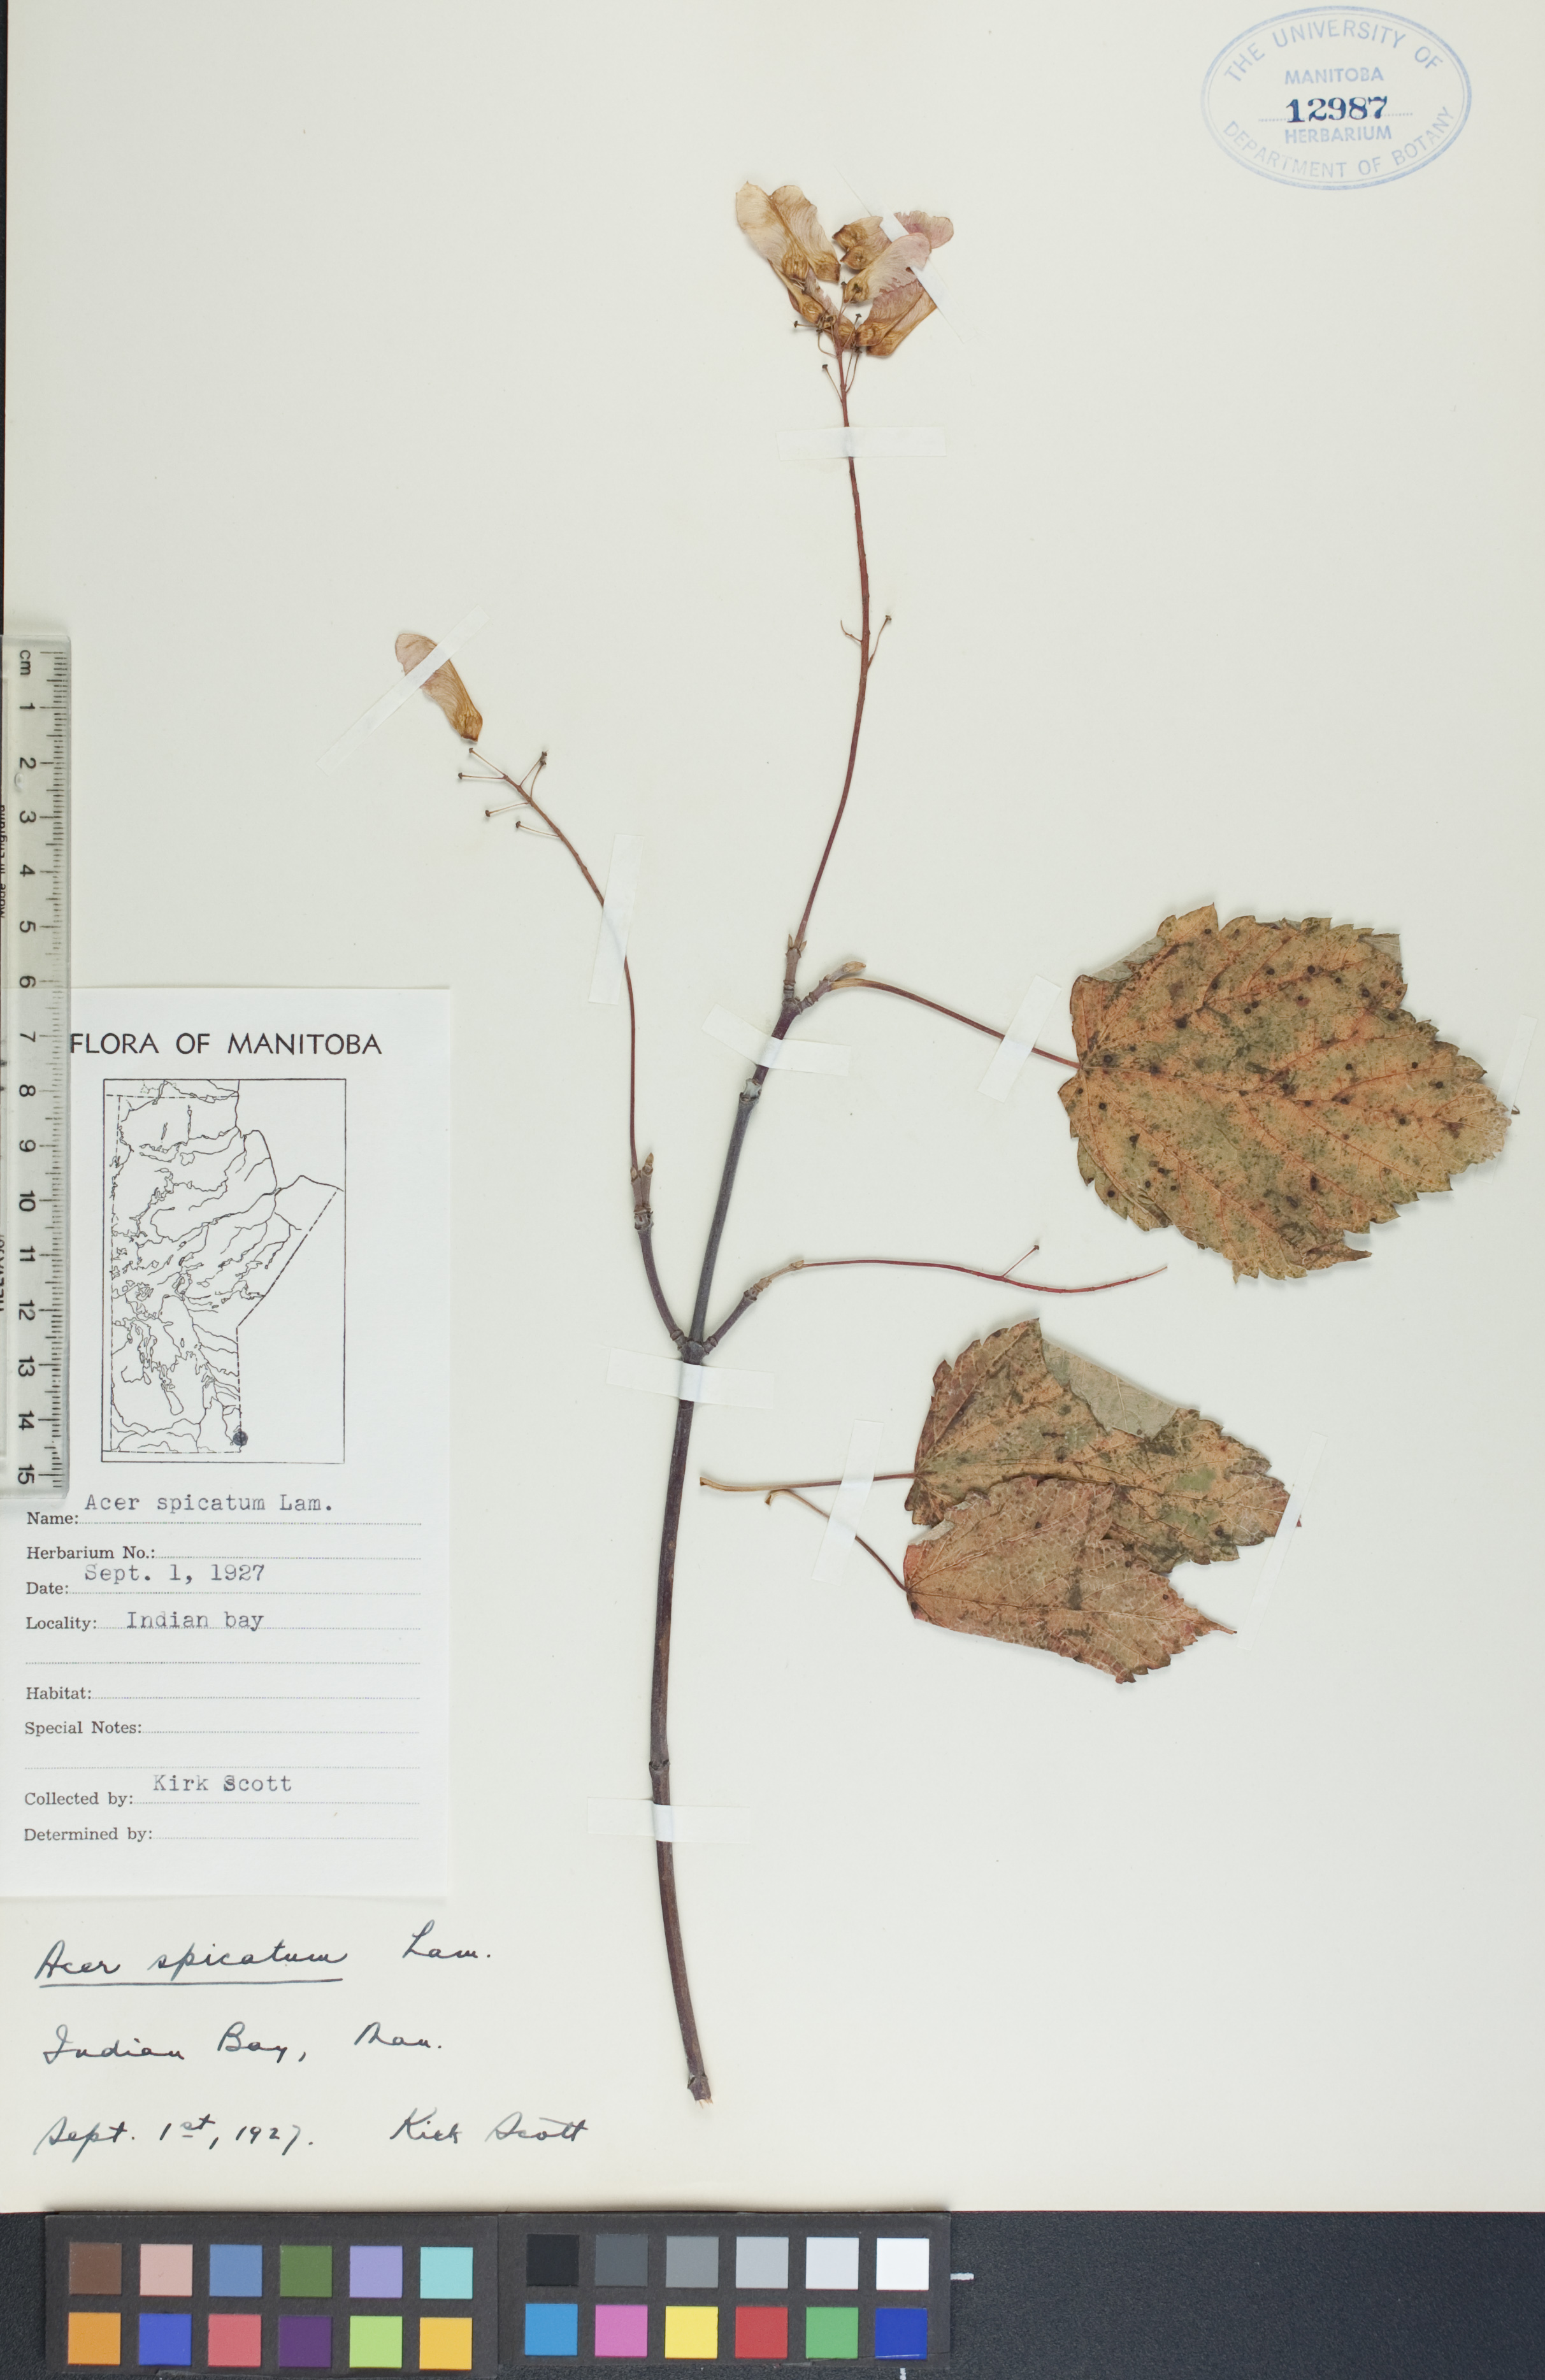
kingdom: Plantae
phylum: Tracheophyta
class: Magnoliopsida
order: Sapindales
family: Sapindaceae
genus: Acer
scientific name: Acer spicatum
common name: Mountain maple
